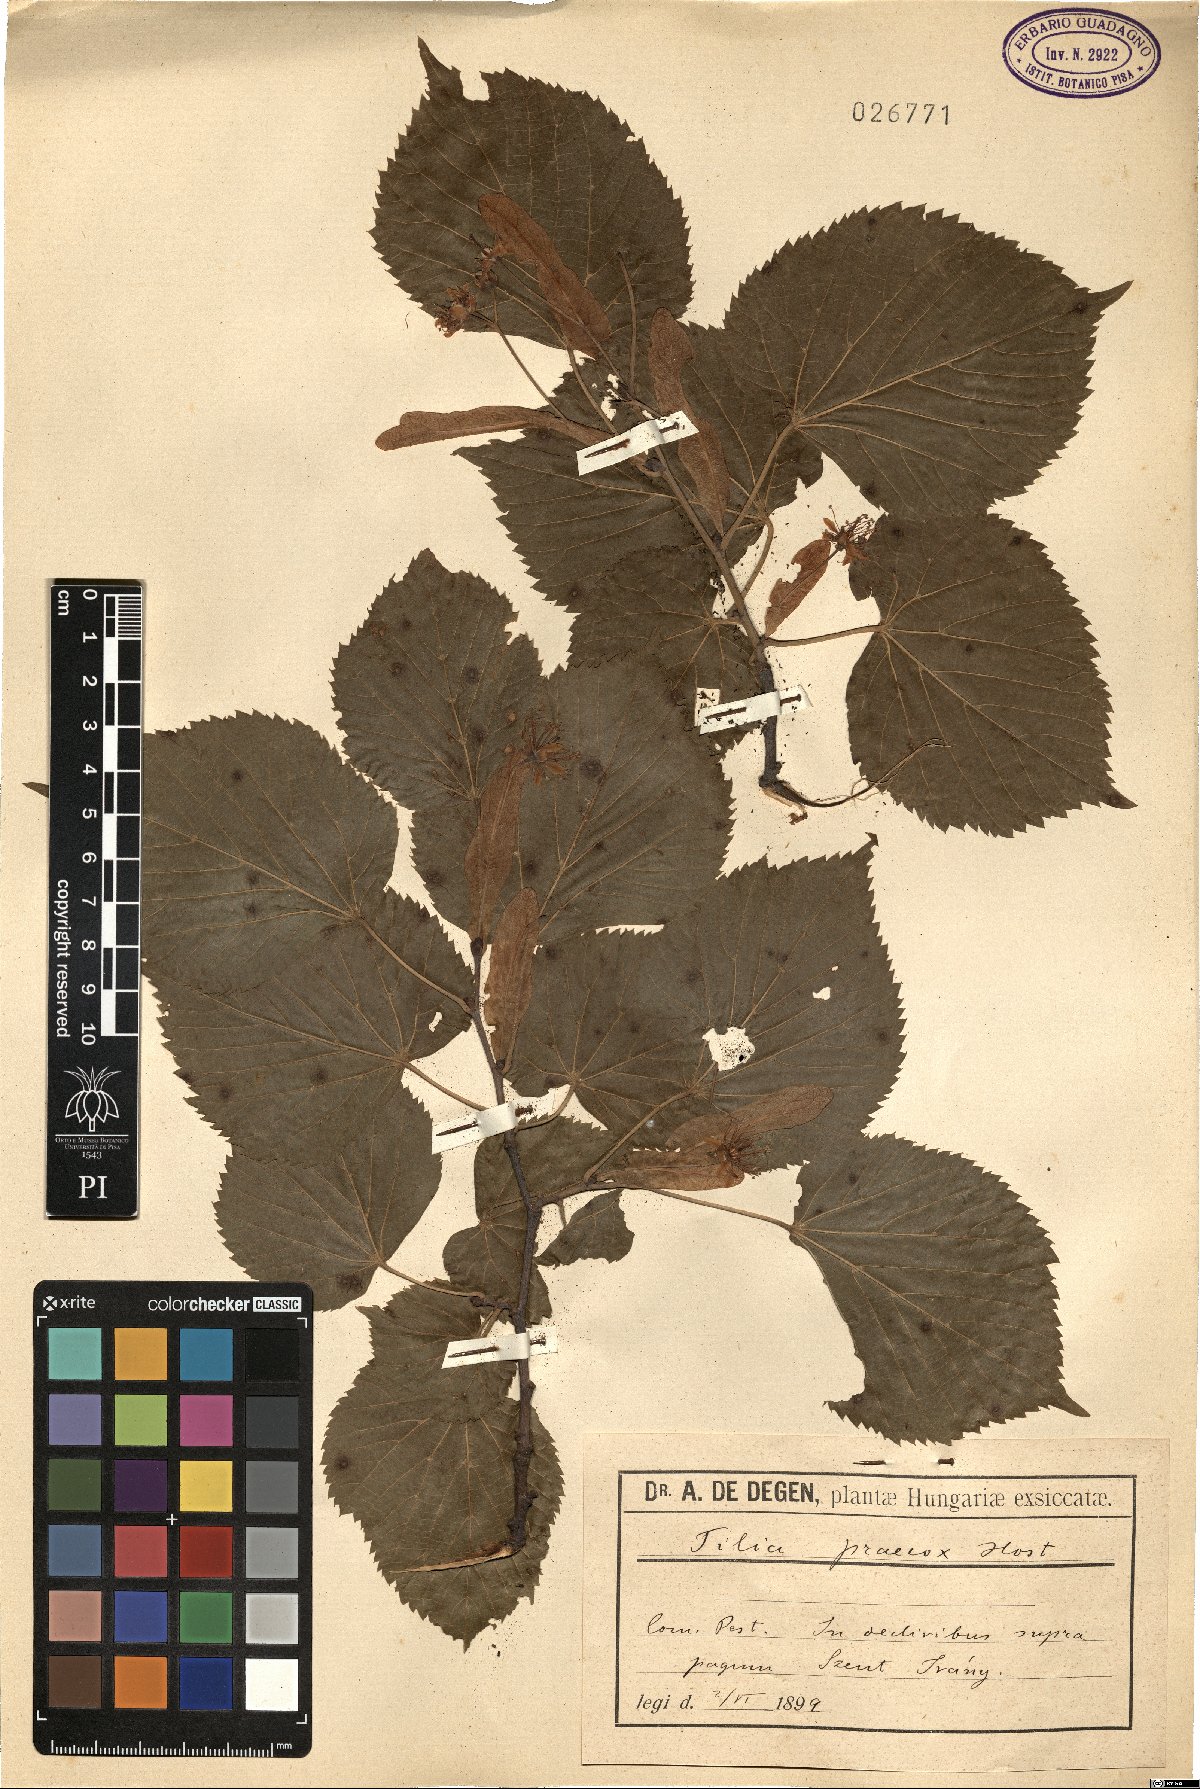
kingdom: Plantae
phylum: Tracheophyta
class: Magnoliopsida
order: Malvales
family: Malvaceae
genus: Tilia
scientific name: Tilia platyphyllos
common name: Large-leaved lime
